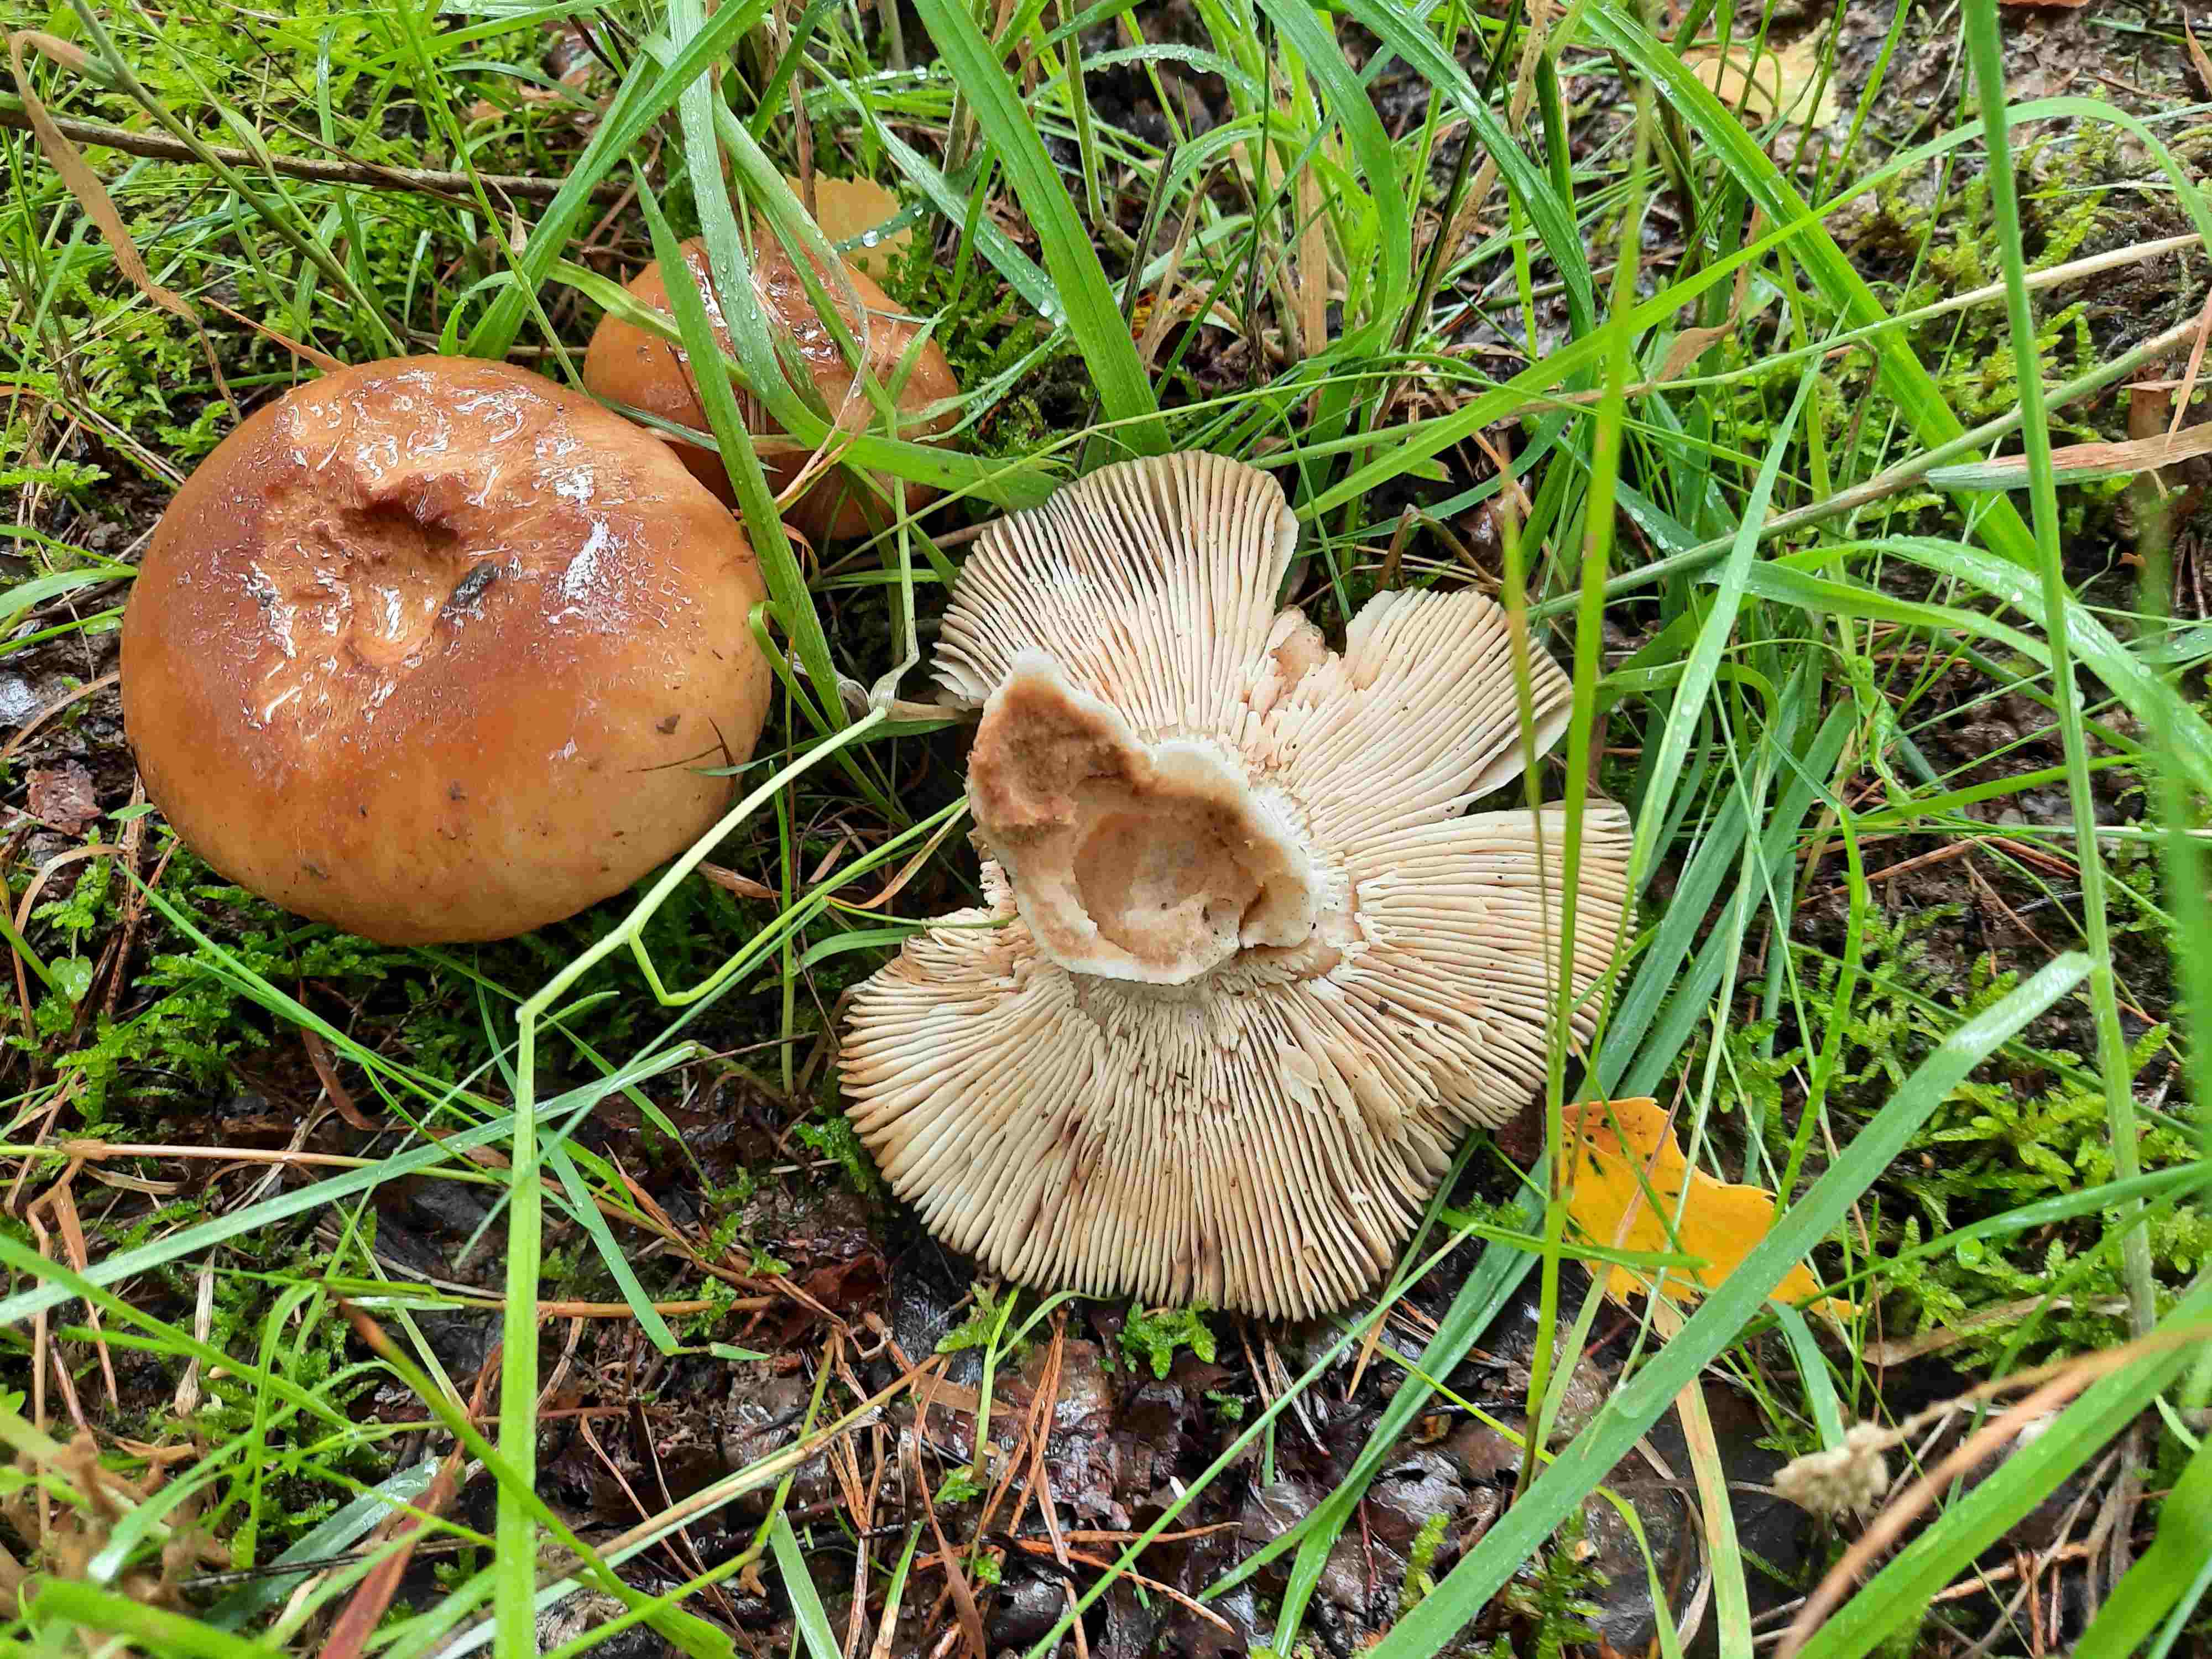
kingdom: Fungi
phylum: Basidiomycota
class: Agaricomycetes
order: Russulales
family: Russulaceae
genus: Russula
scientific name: Russula foetens
